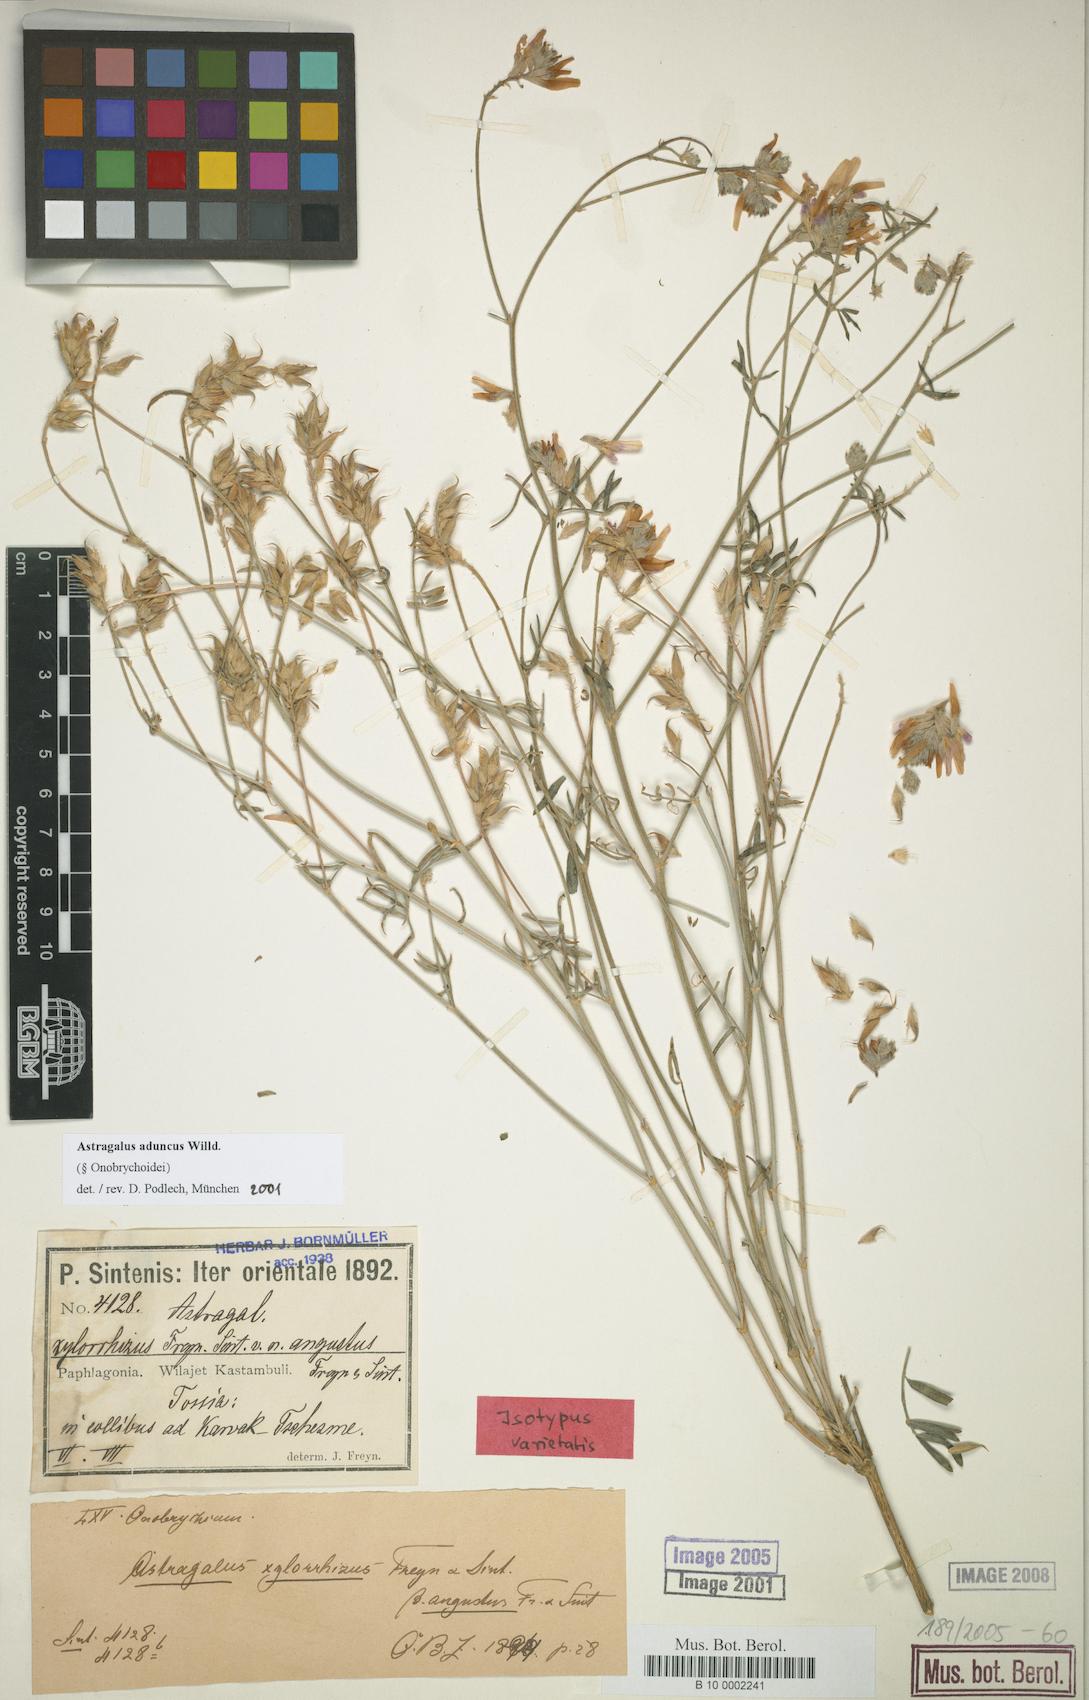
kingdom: Plantae
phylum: Tracheophyta
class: Magnoliopsida
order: Fabales
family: Fabaceae
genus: Astragalus
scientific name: Astragalus aduncus
